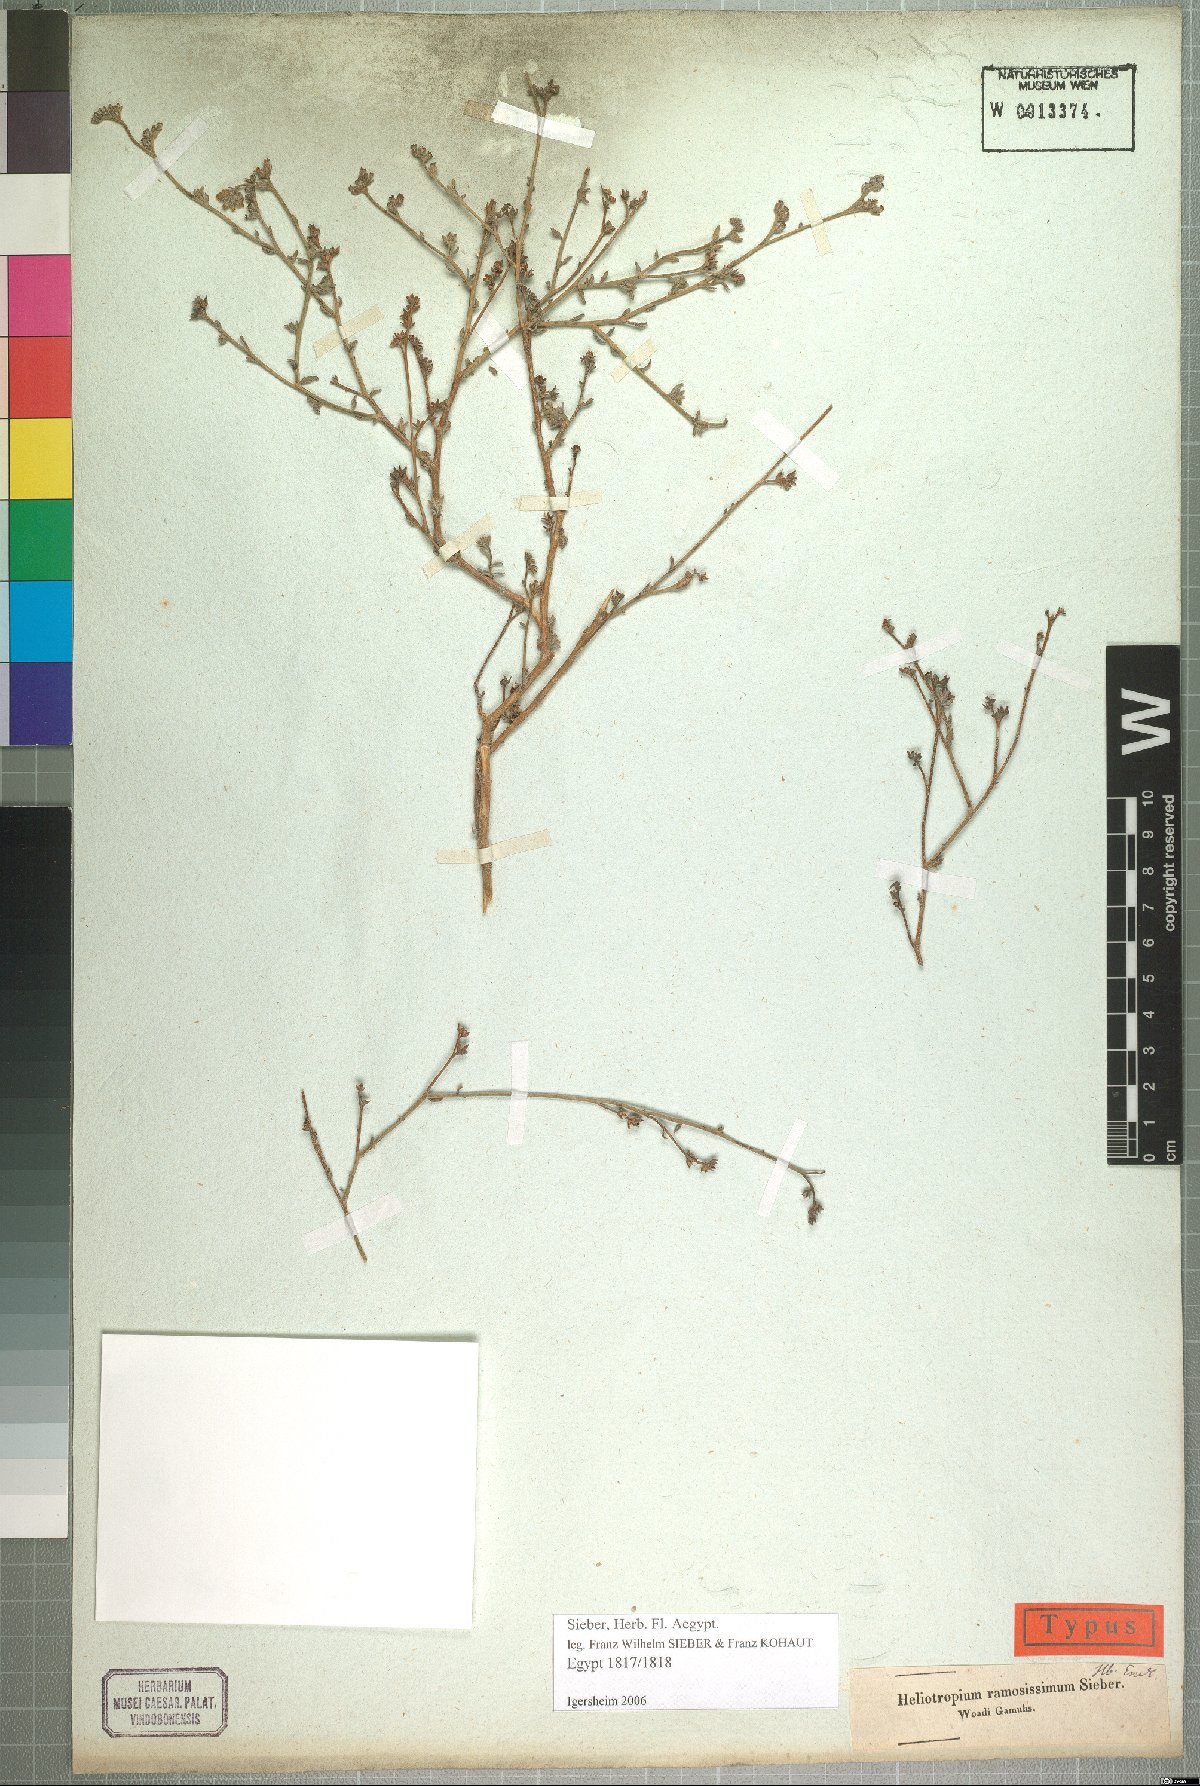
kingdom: Plantae
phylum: Tracheophyta
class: Magnoliopsida
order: Boraginales
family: Heliotropiaceae
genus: Heliotropium
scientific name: Heliotropium bacciferum
